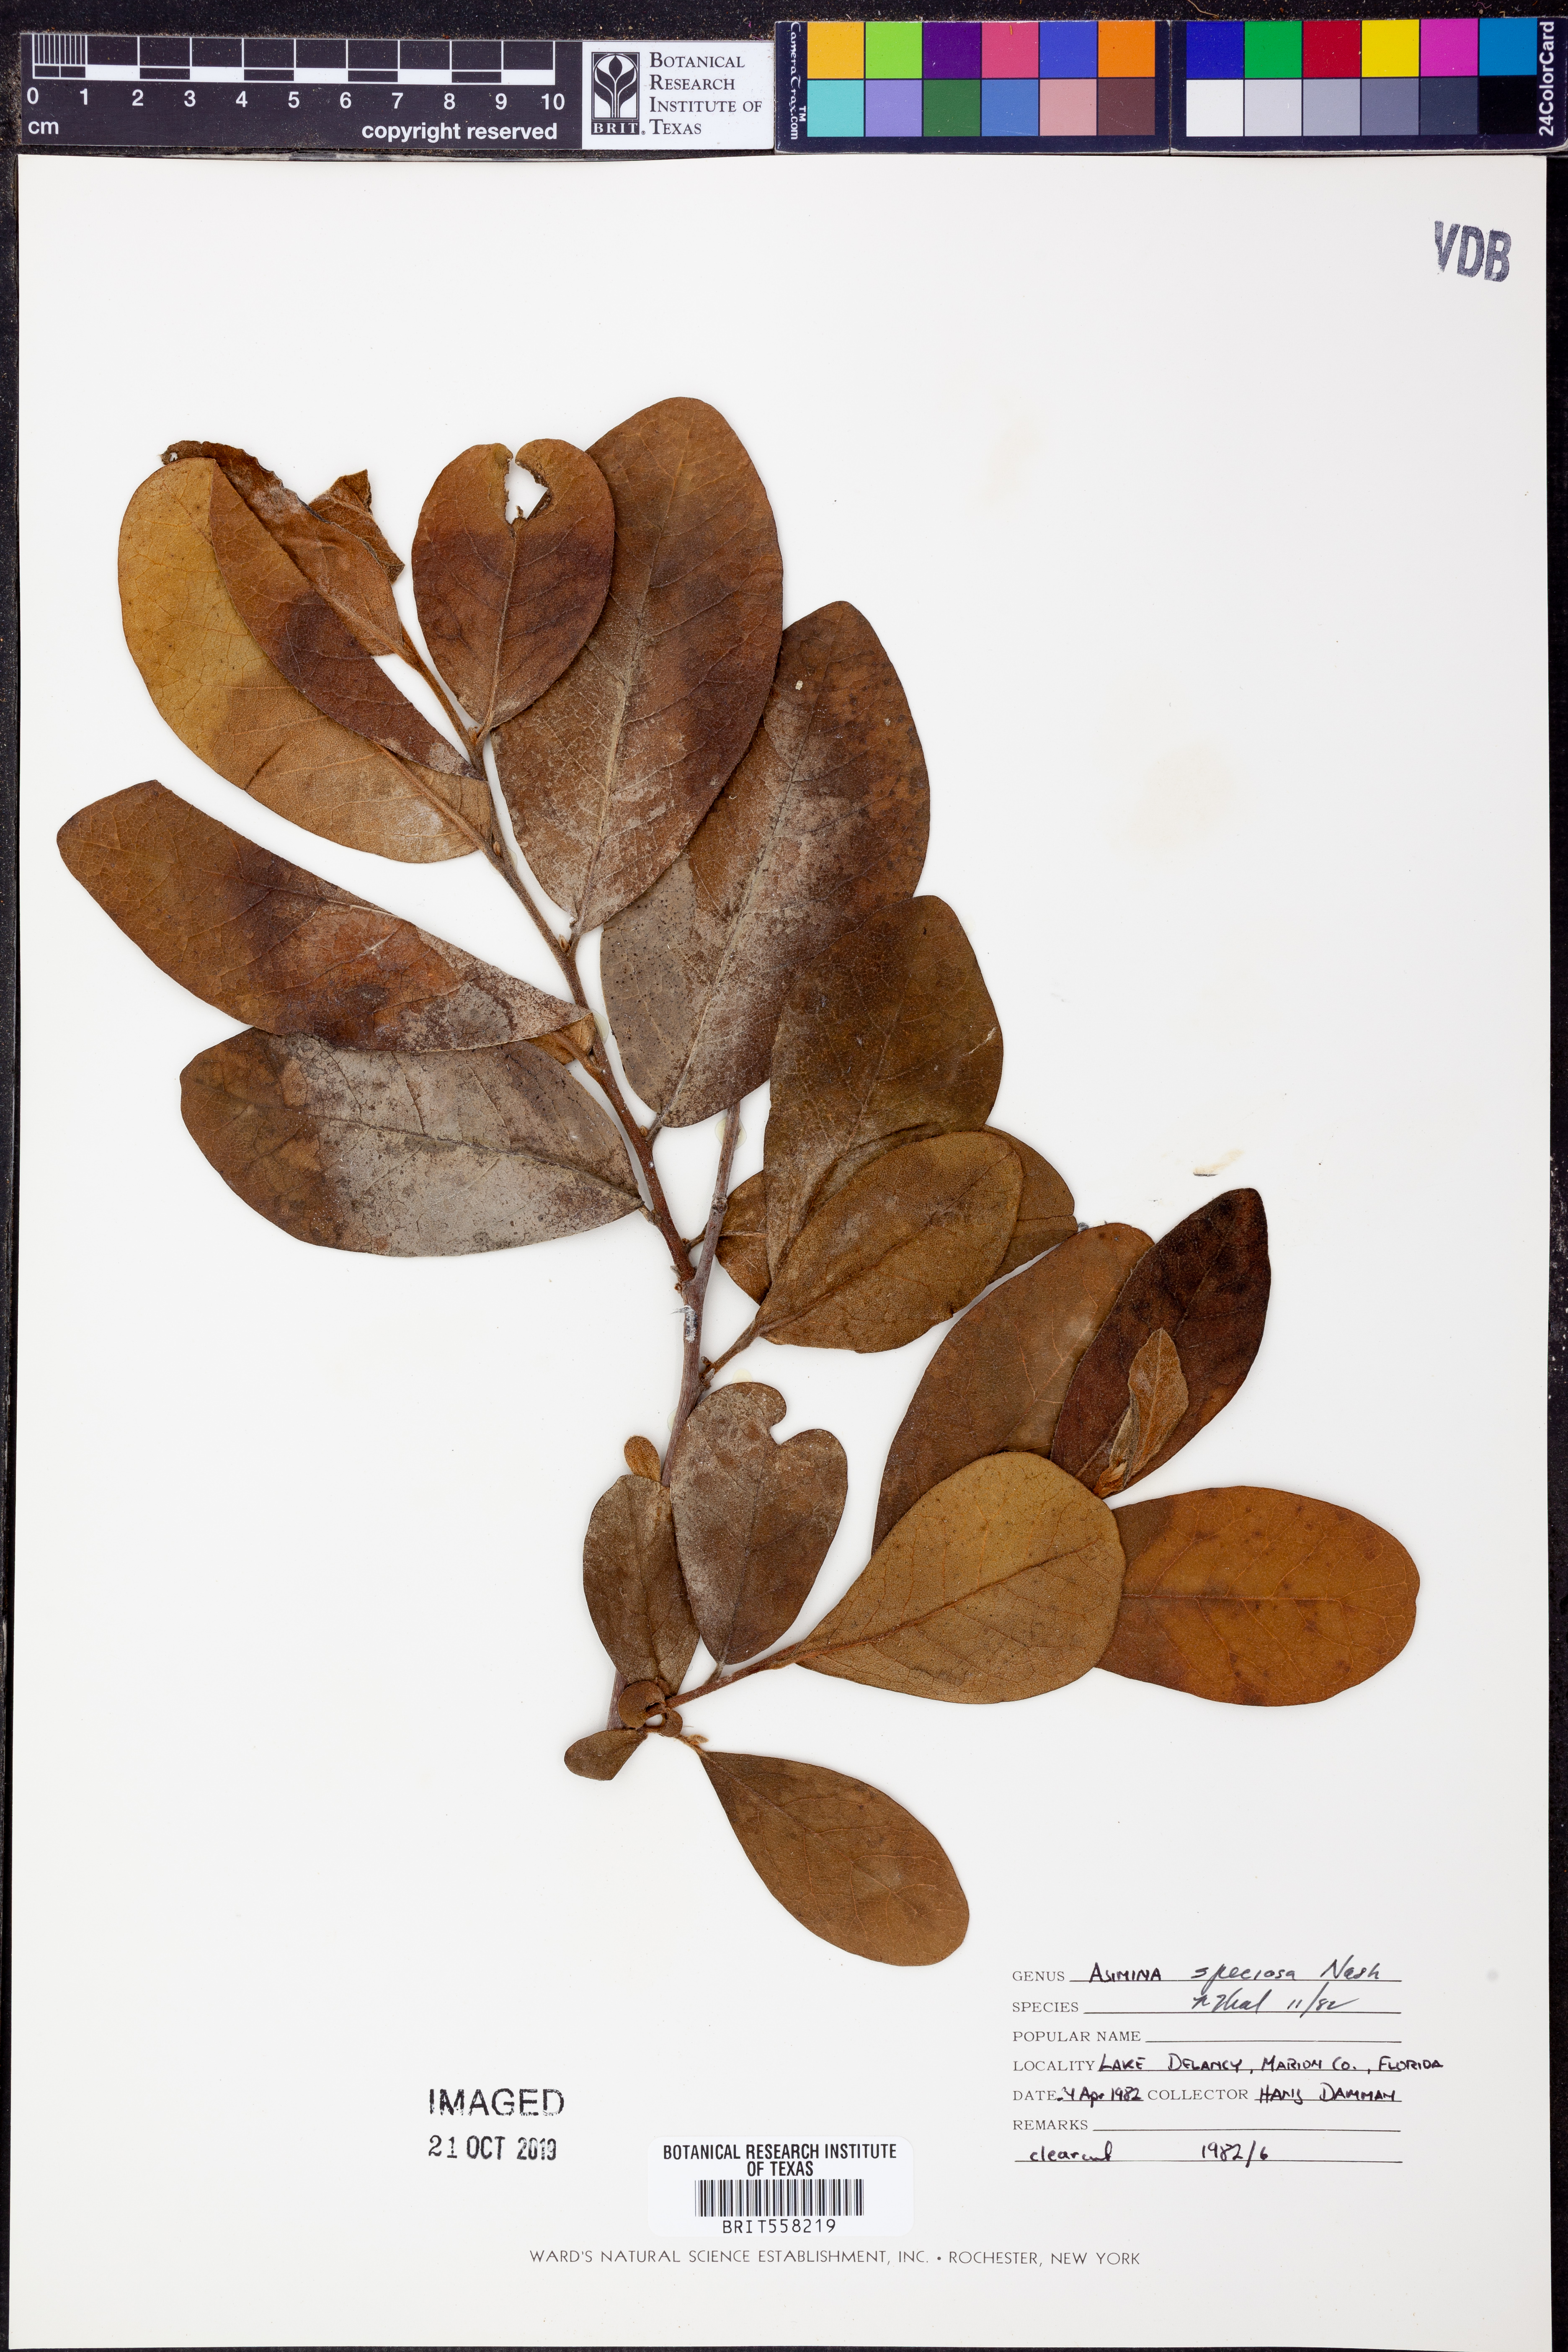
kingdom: Plantae
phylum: Tracheophyta
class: Magnoliopsida
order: Magnoliales
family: Annonaceae
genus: Asimina
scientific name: Asimina speciosa
